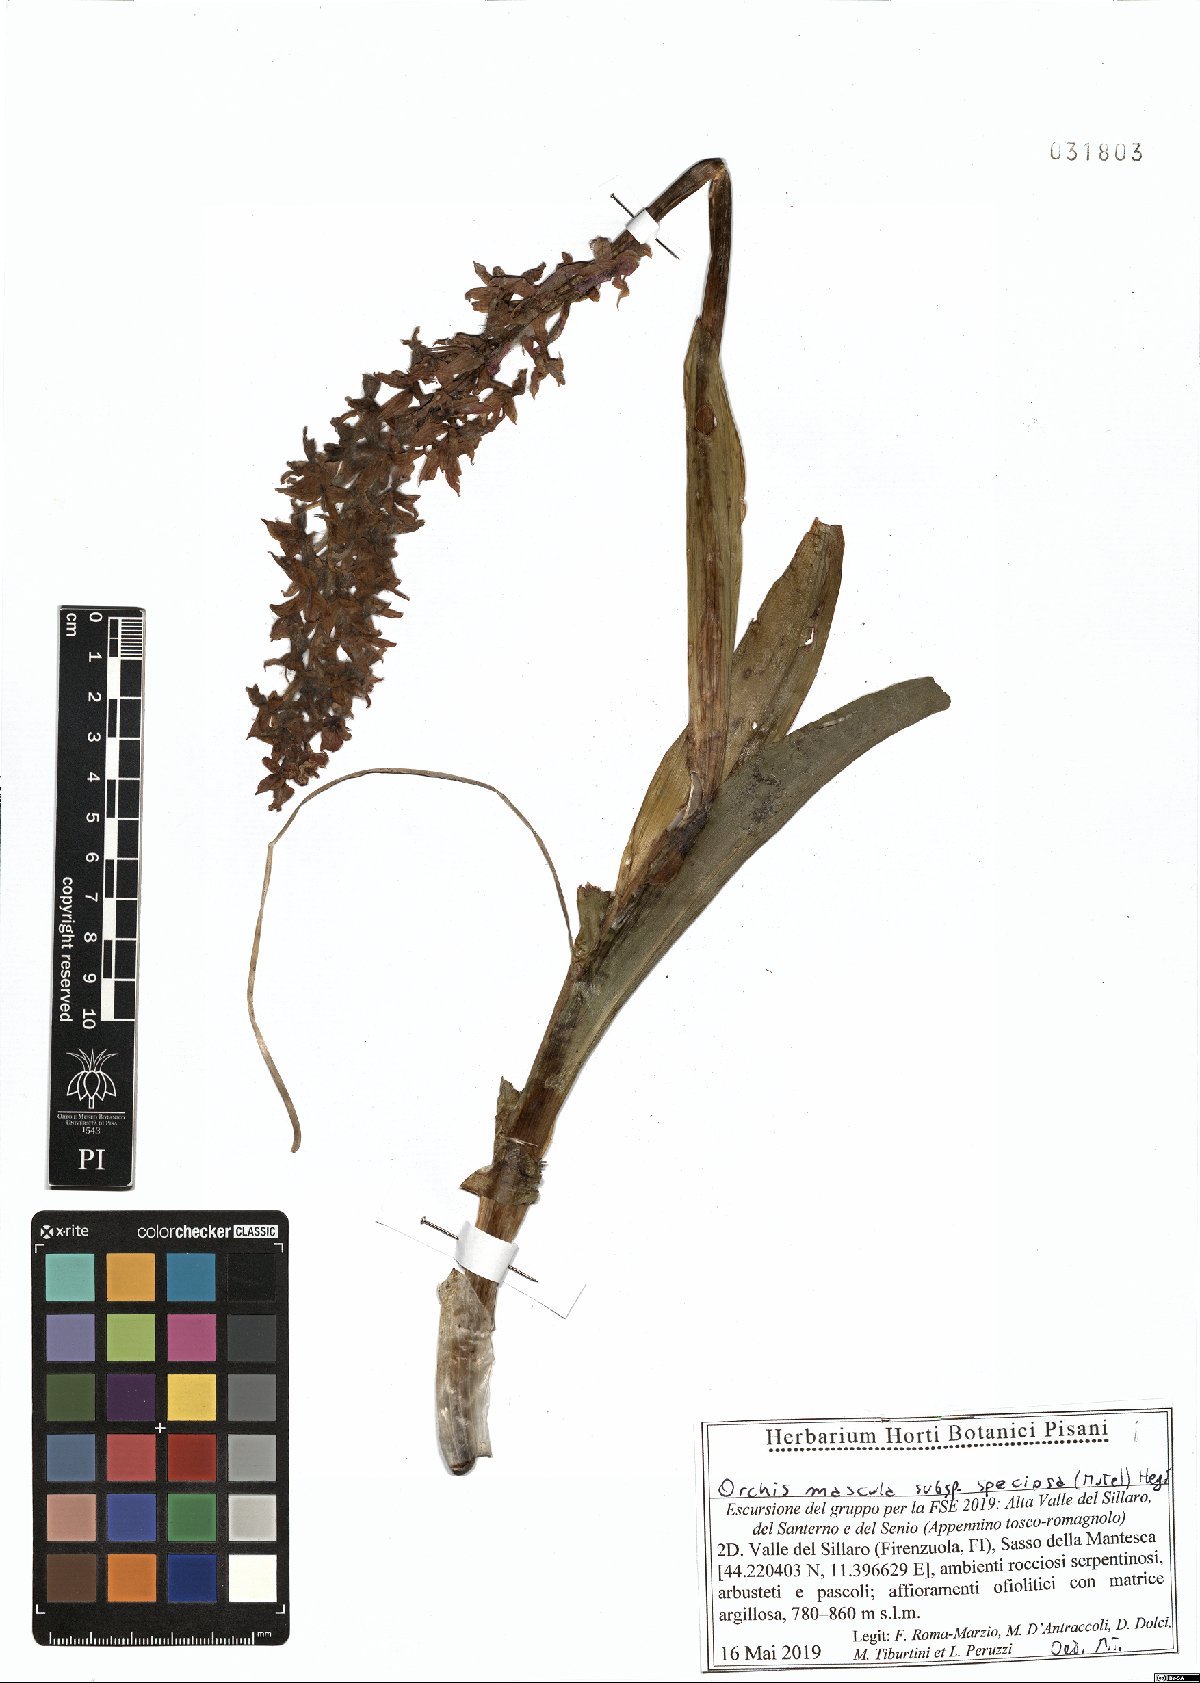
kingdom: Plantae
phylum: Tracheophyta
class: Liliopsida
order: Asparagales
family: Orchidaceae
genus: Orchis
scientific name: Orchis mascula
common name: Early-purple orchid
